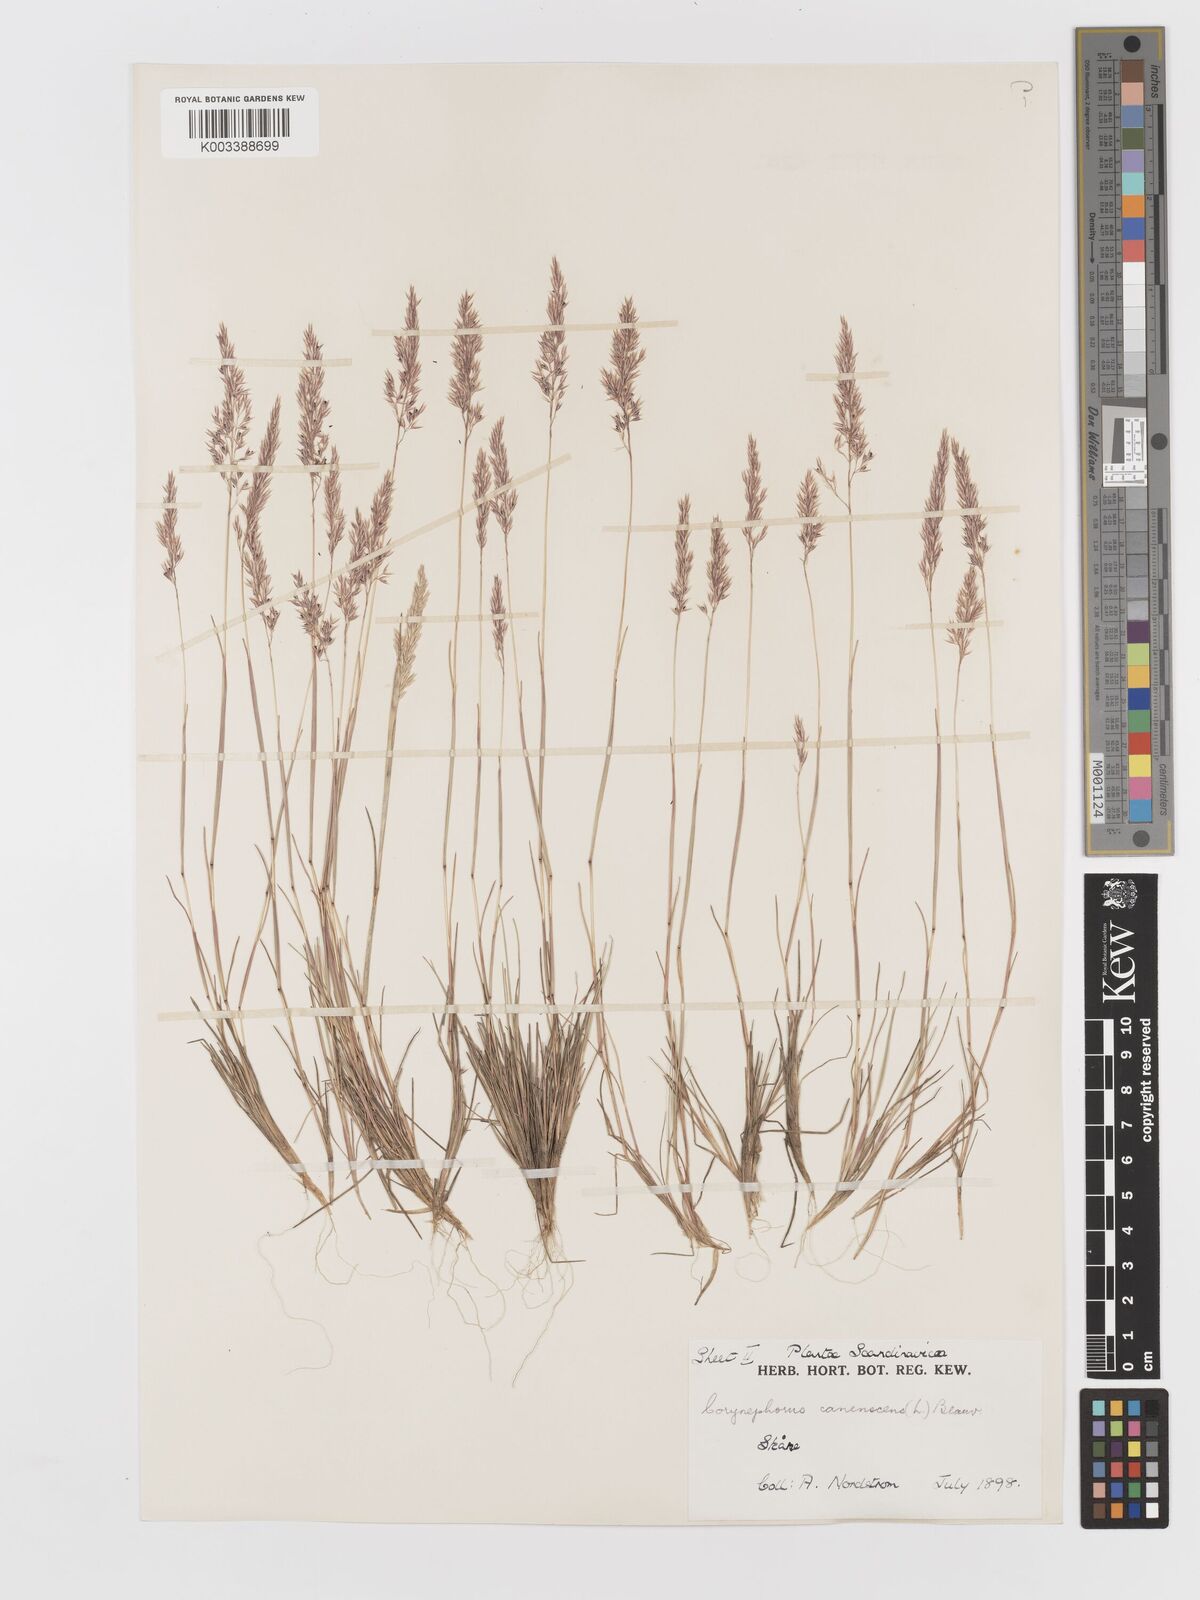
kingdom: Plantae
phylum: Tracheophyta
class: Liliopsida
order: Poales
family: Poaceae
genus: Corynephorus
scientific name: Corynephorus canescens
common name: Grey hair-grass
